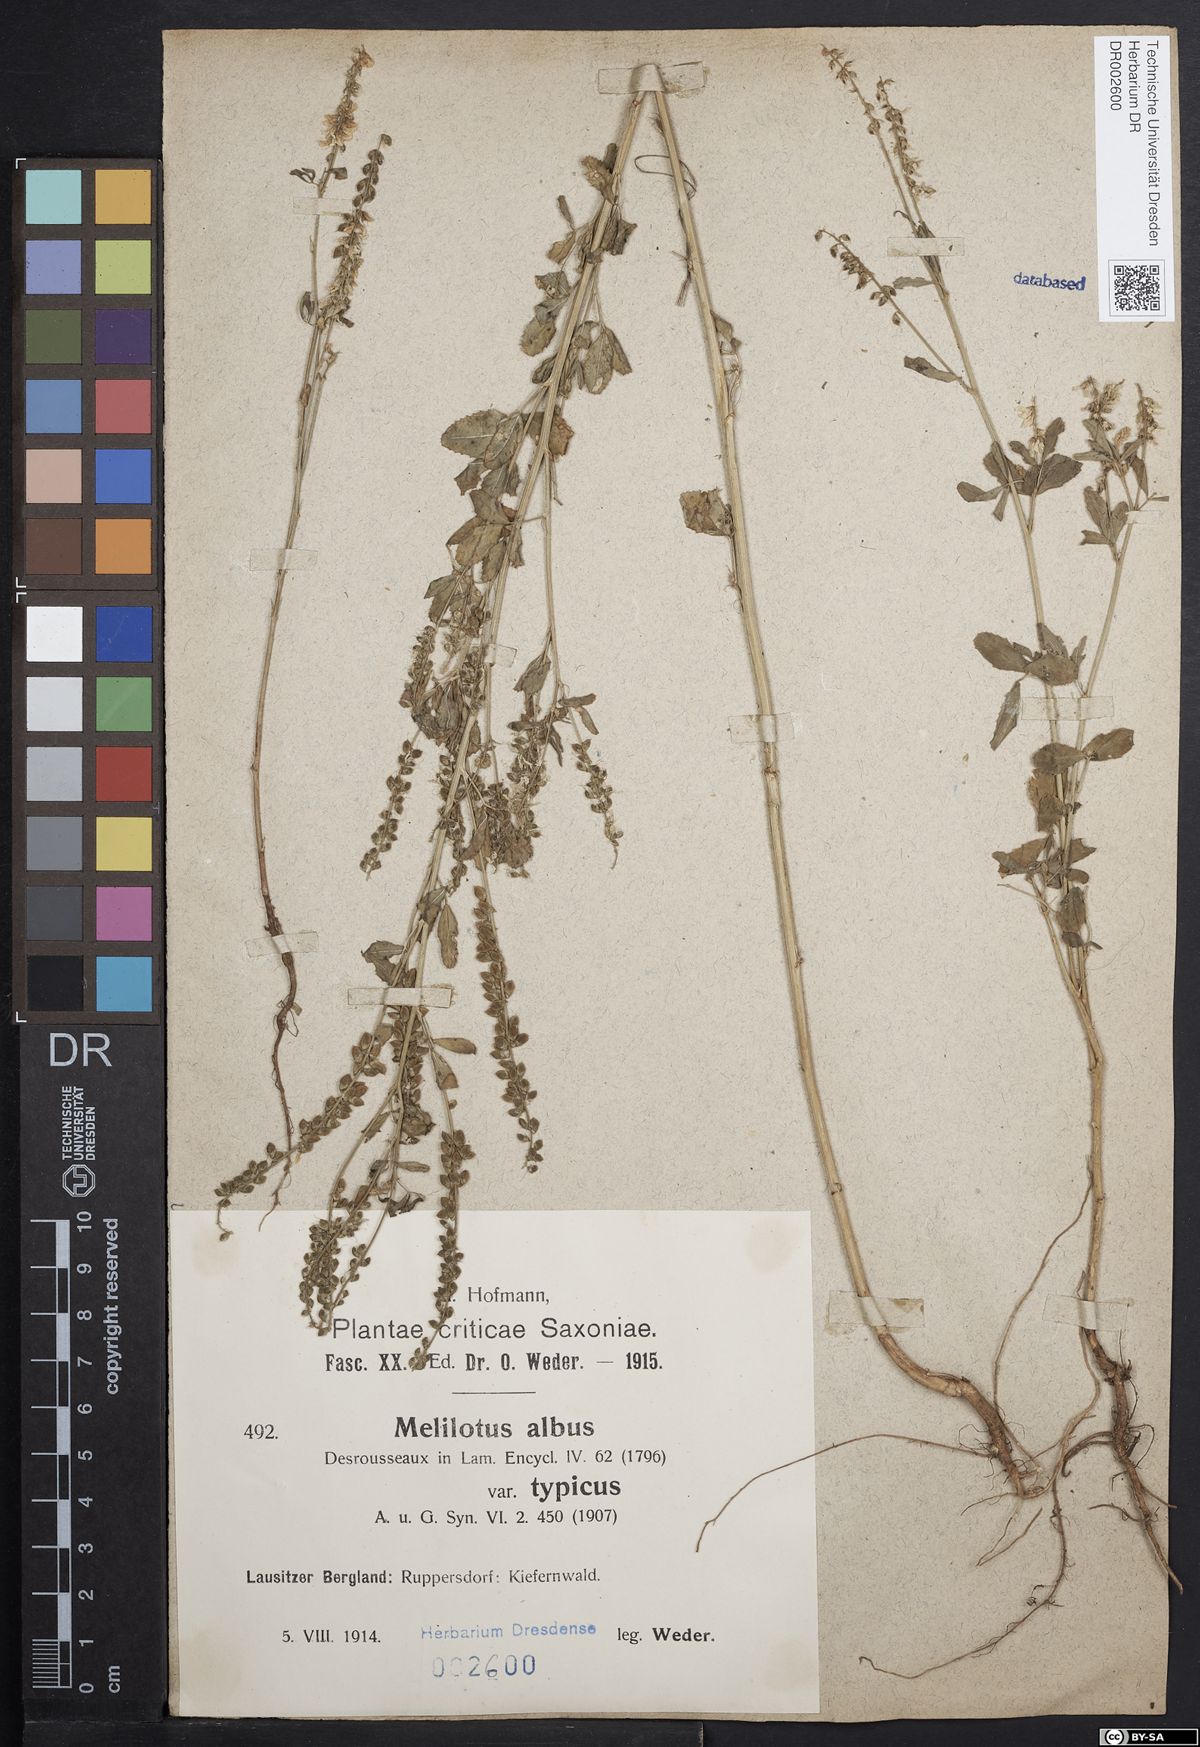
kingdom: Plantae
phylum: Tracheophyta
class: Magnoliopsida
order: Fabales
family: Fabaceae
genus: Melilotus
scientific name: Melilotus albus
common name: White melilot
